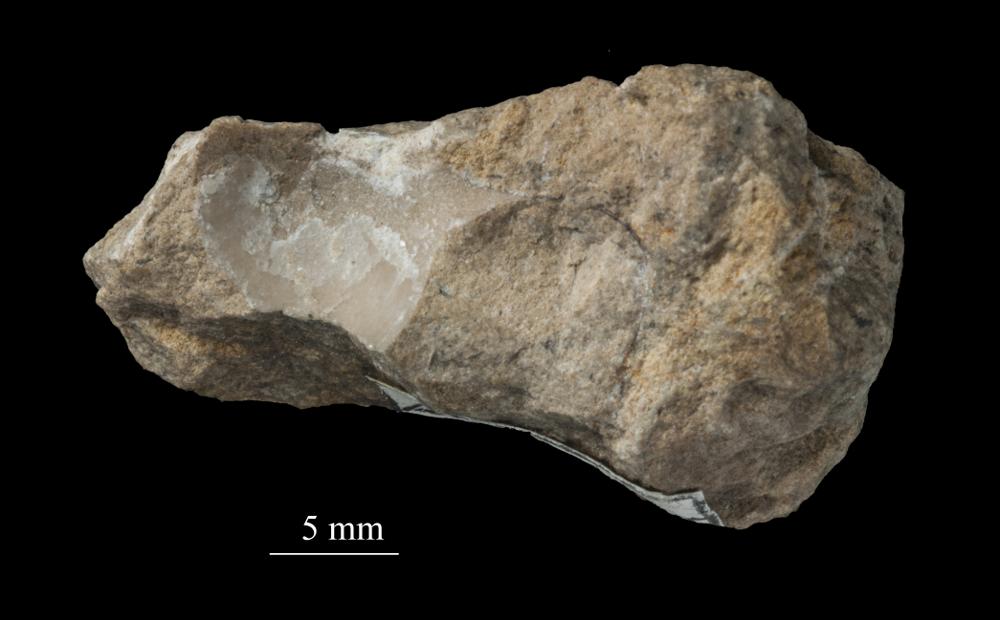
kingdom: Animalia
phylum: Mollusca
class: Gastropoda
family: Bucaniidae
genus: Tetranota
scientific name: Tetranota Bucaniella jugata
